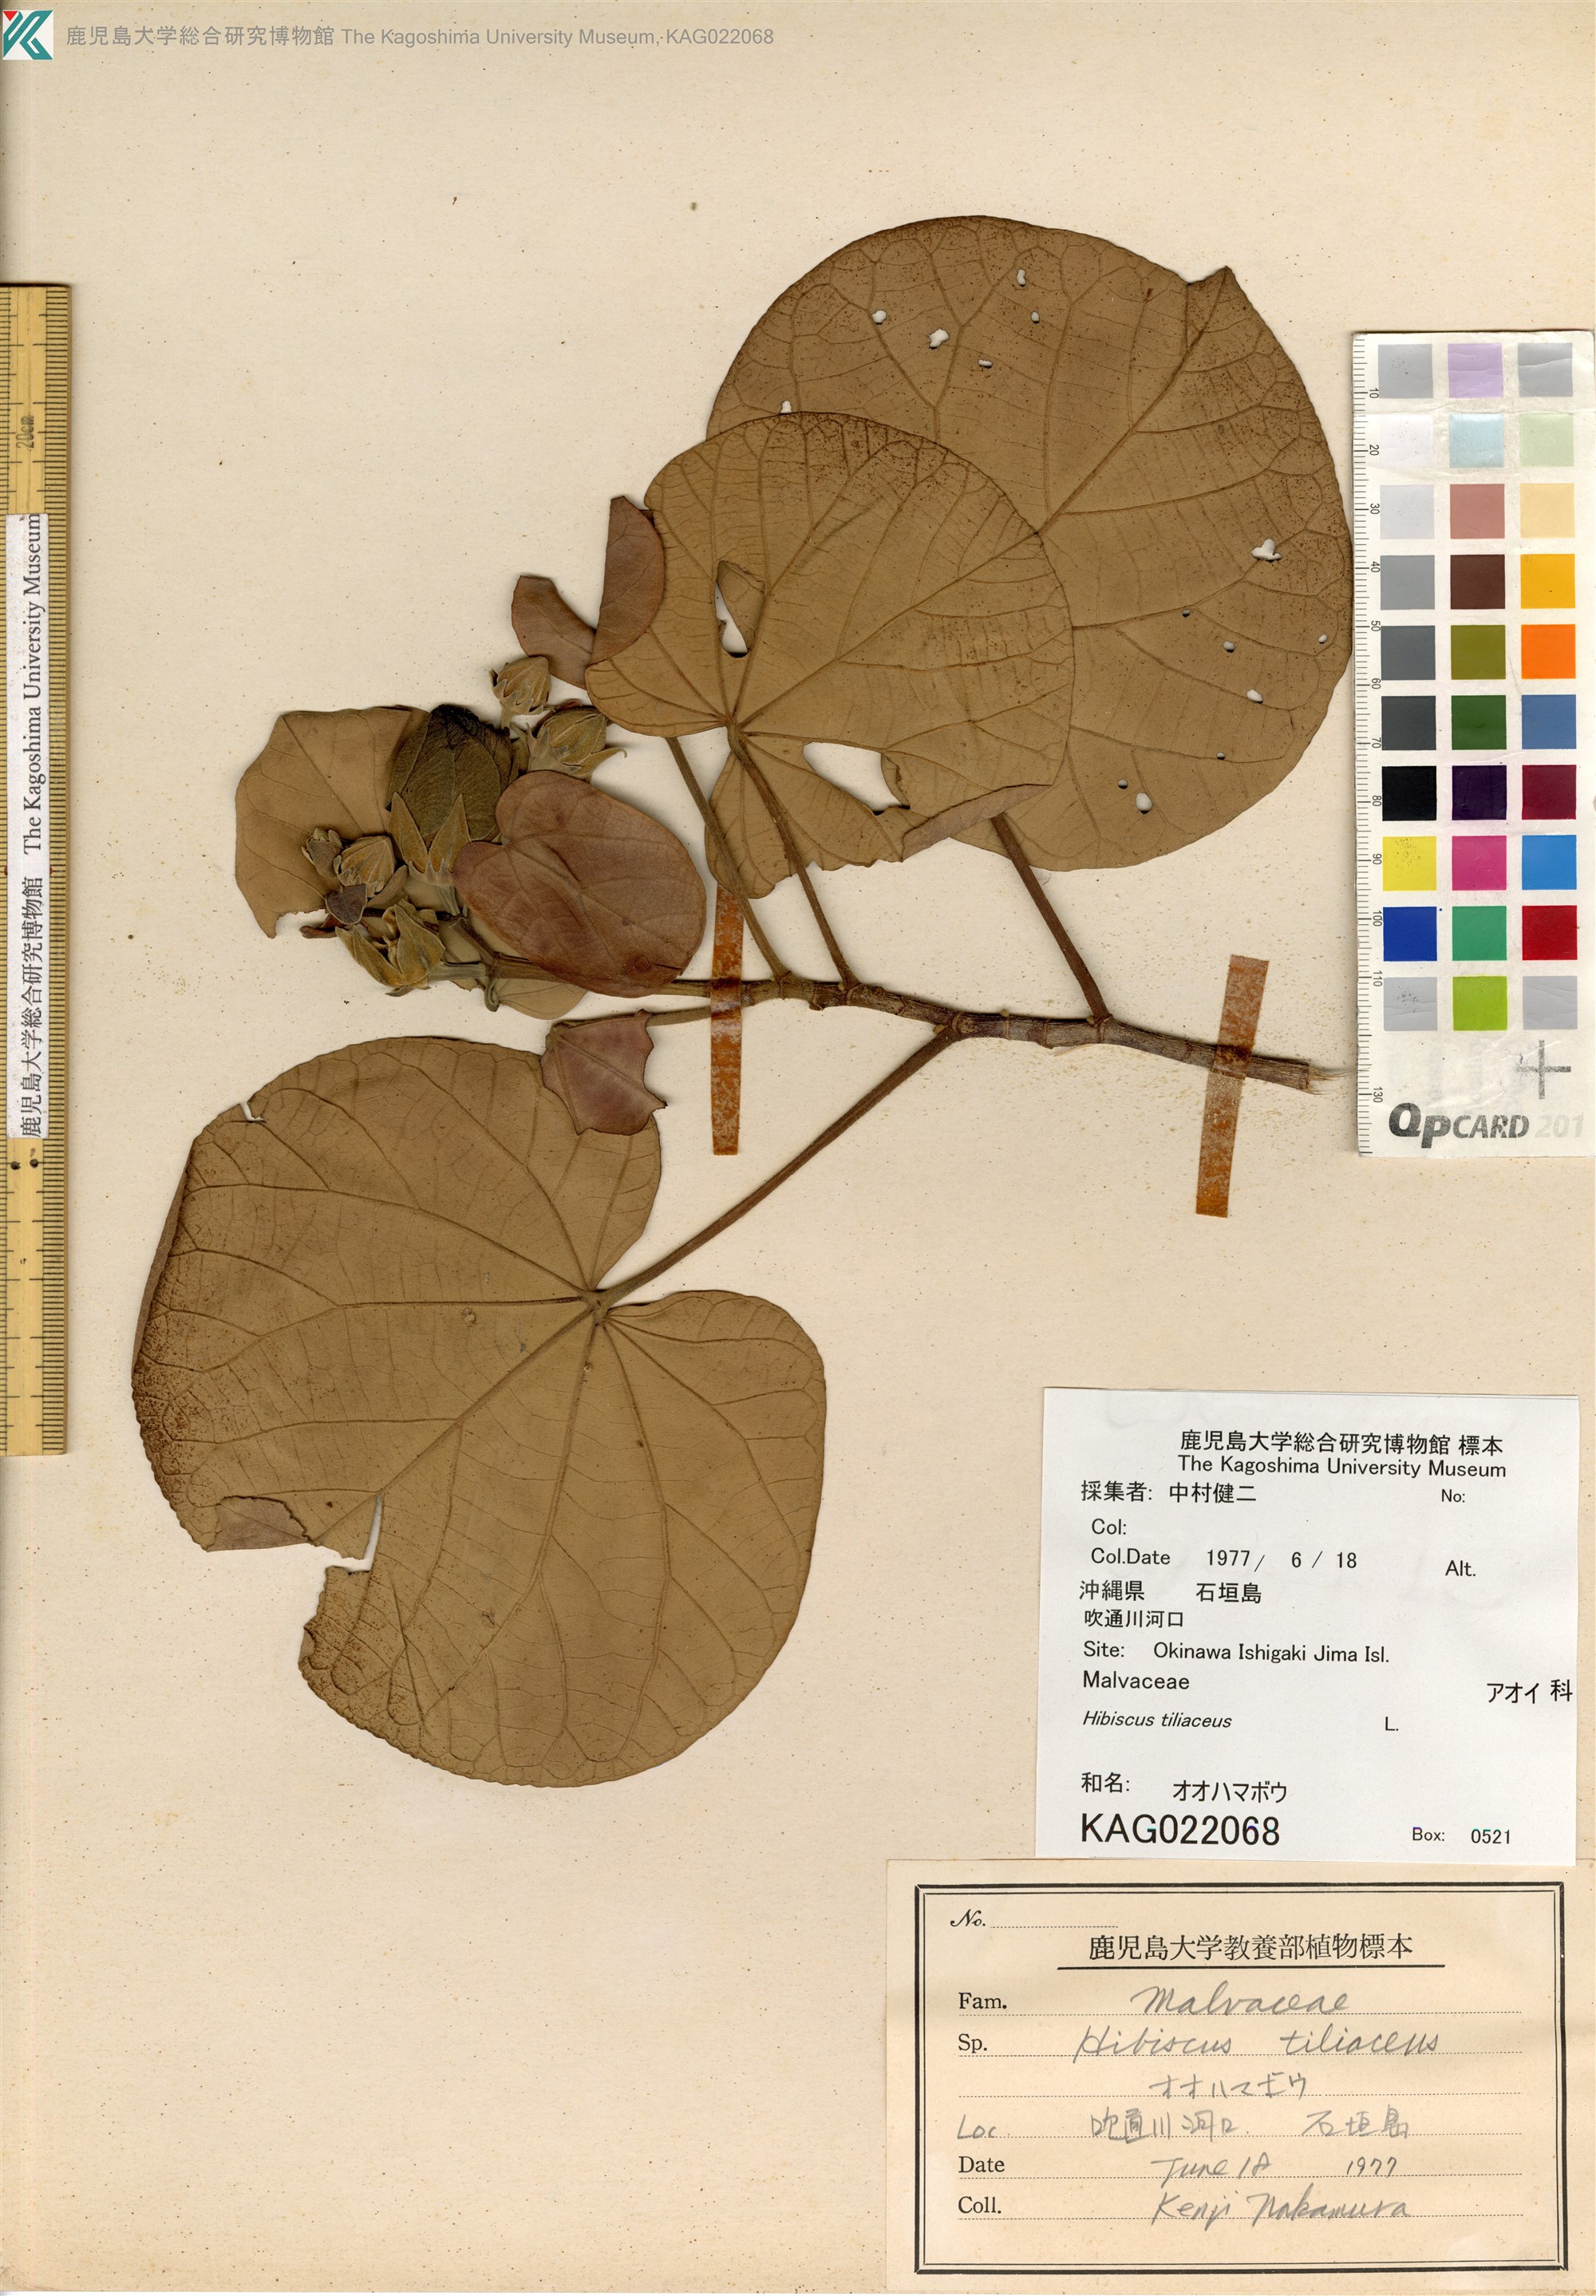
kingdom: Plantae
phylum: Tracheophyta
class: Magnoliopsida
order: Malvales
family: Malvaceae
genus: Talipariti
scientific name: Talipariti tiliaceum
